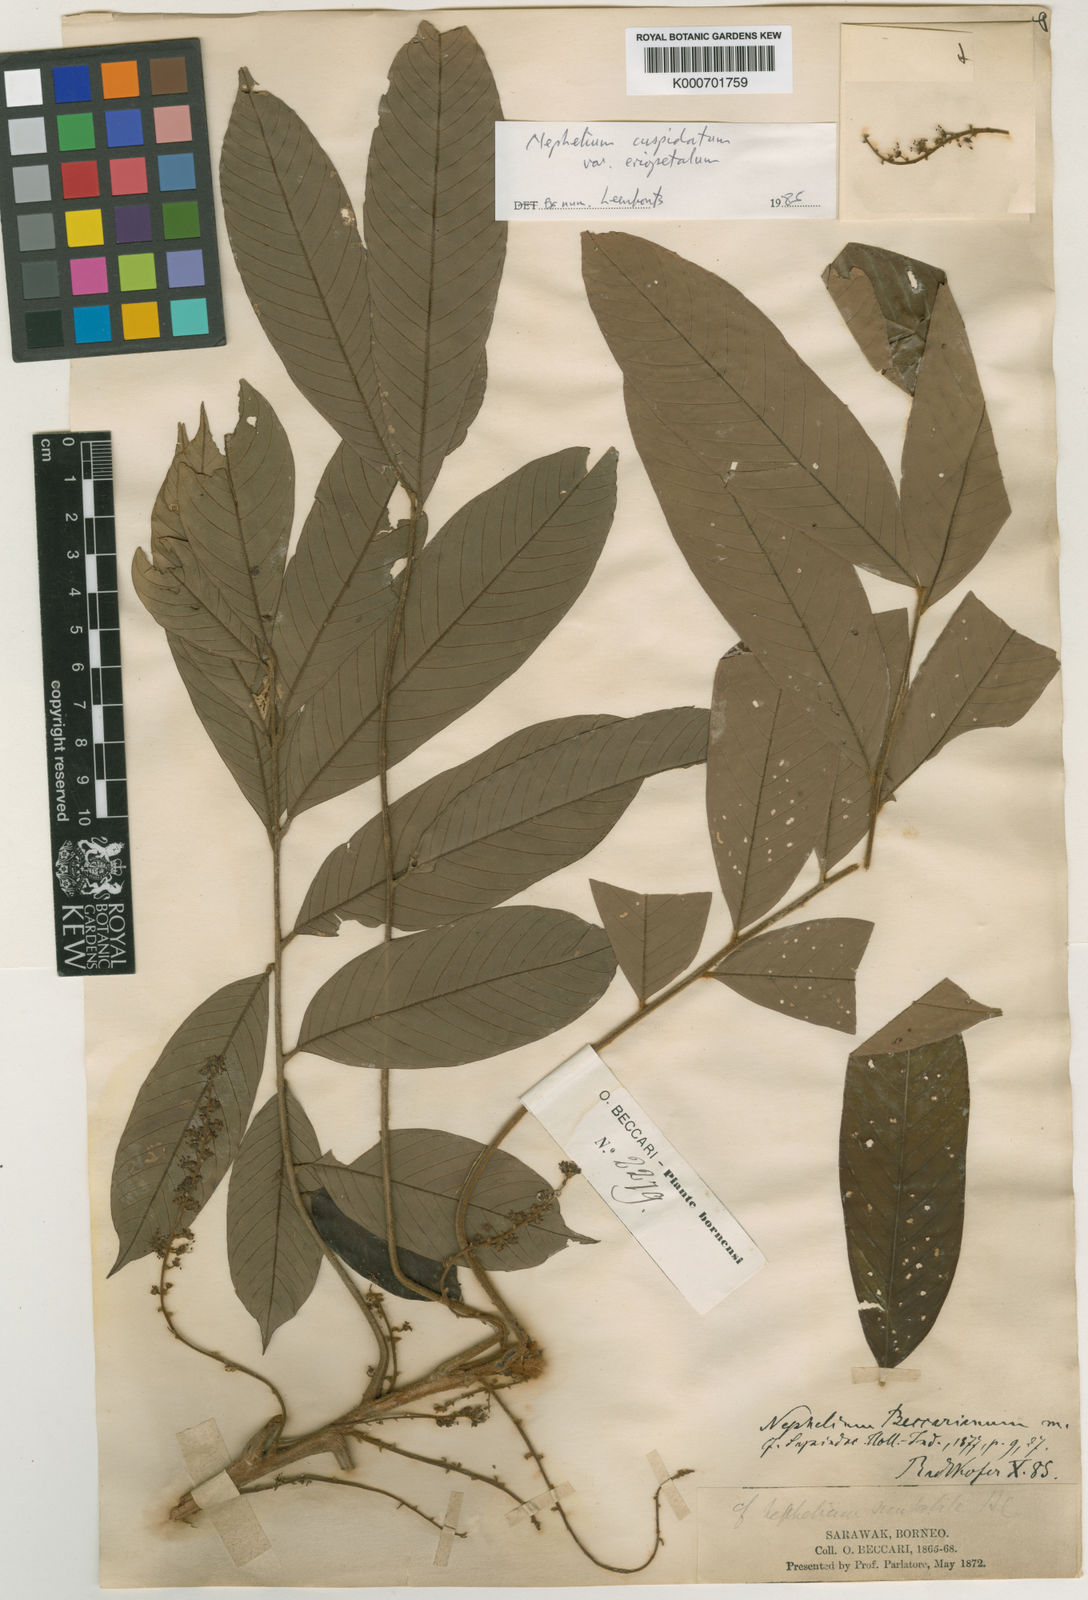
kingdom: Plantae
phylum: Tracheophyta
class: Magnoliopsida
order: Sapindales
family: Sapindaceae
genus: Nephelium
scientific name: Nephelium cuspidatum
